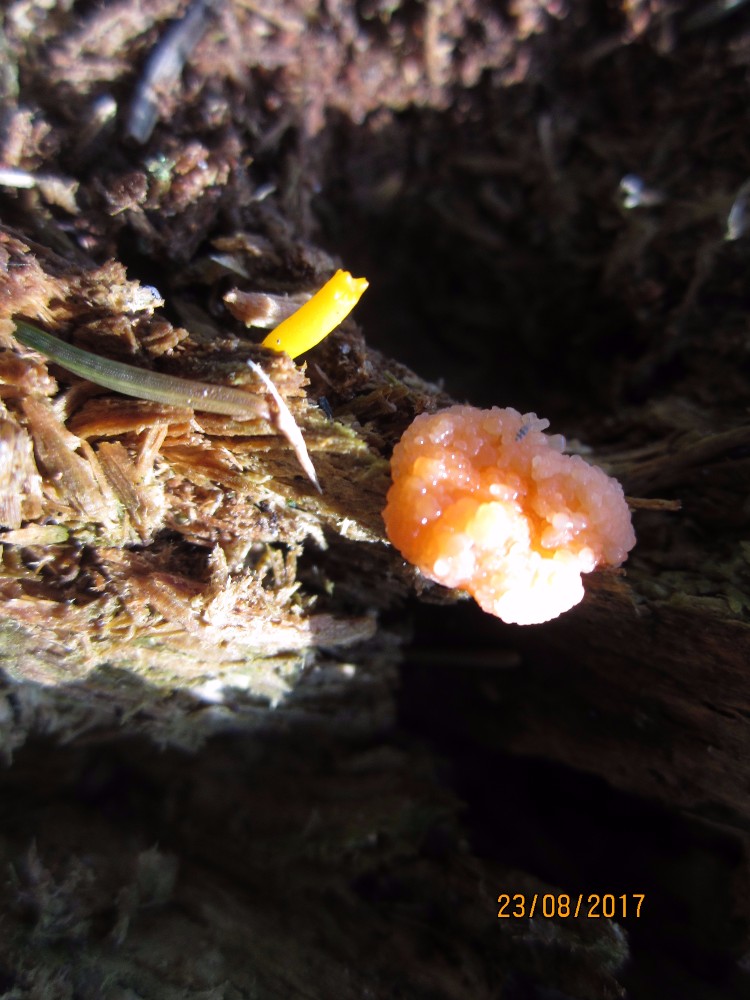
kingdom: Protozoa
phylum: Mycetozoa
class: Myxomycetes
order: Cribrariales
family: Tubiferaceae
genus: Tubifera
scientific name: Tubifera ferruginosa
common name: kanel-støvrør
